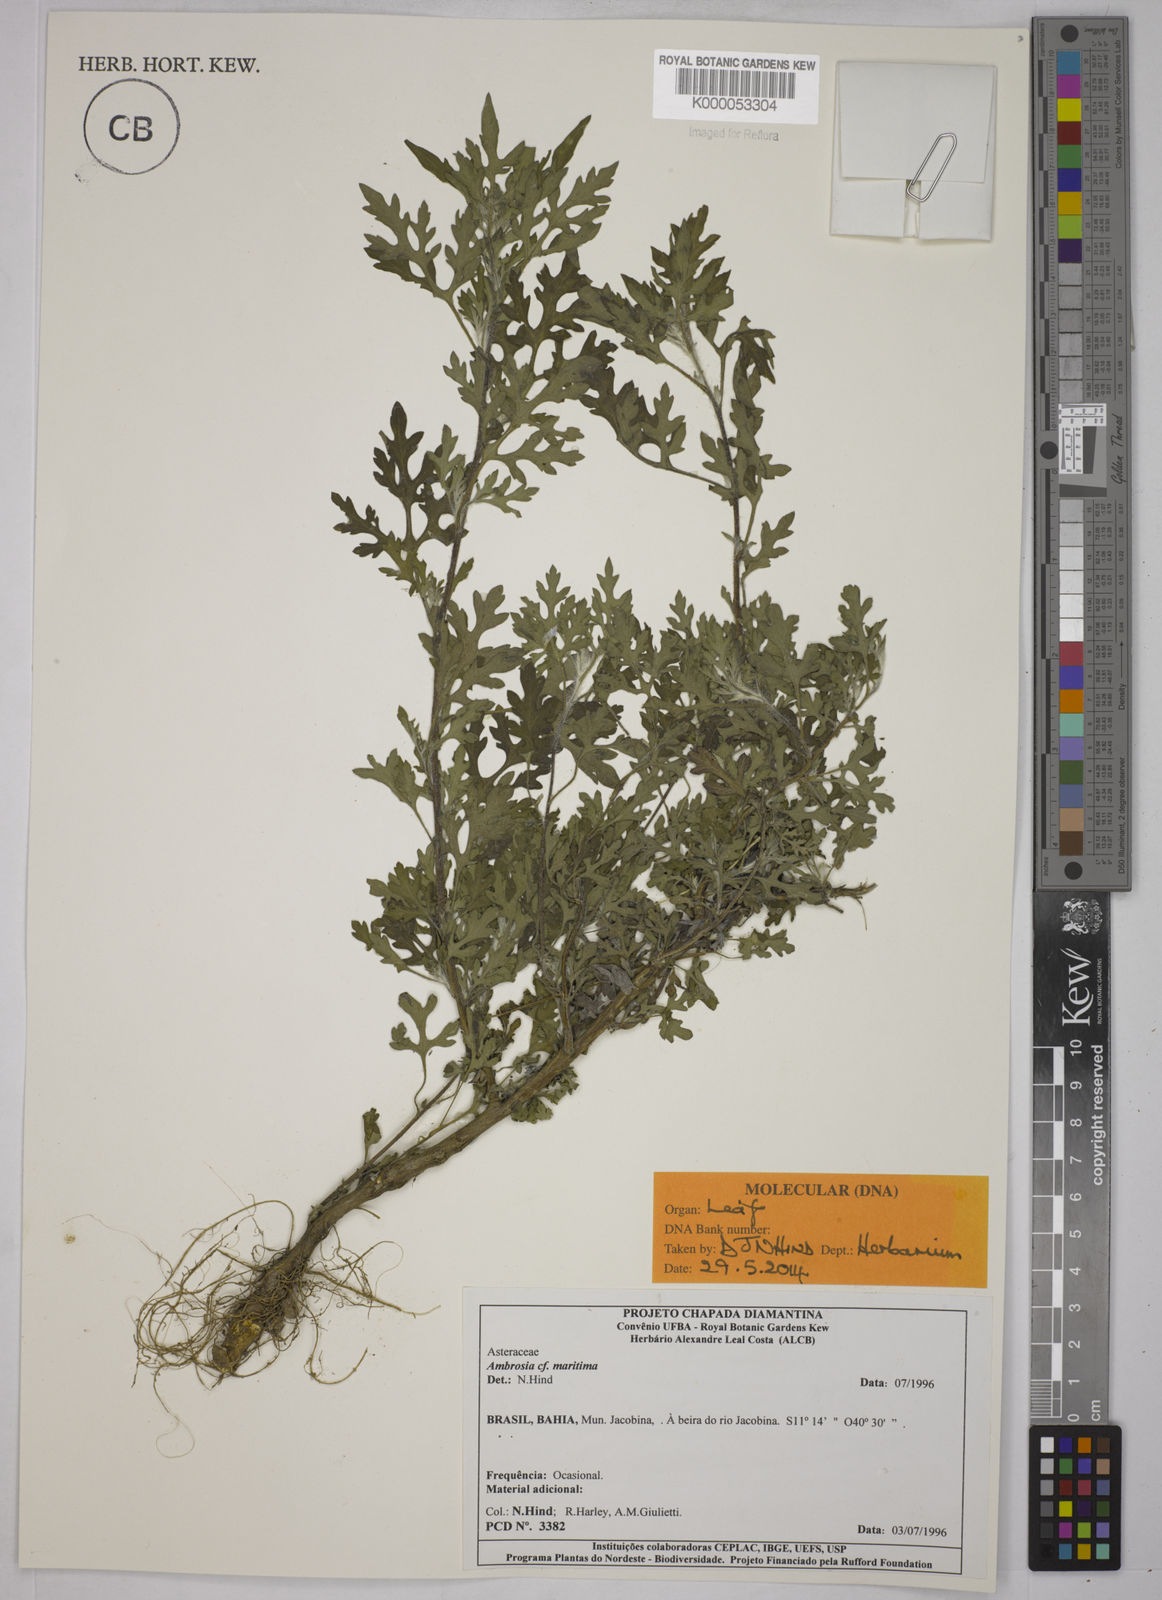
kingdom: Plantae
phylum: Tracheophyta
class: Magnoliopsida
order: Asterales
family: Asteraceae
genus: Ambrosia
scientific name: Ambrosia maritima
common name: Sea ambrosia
